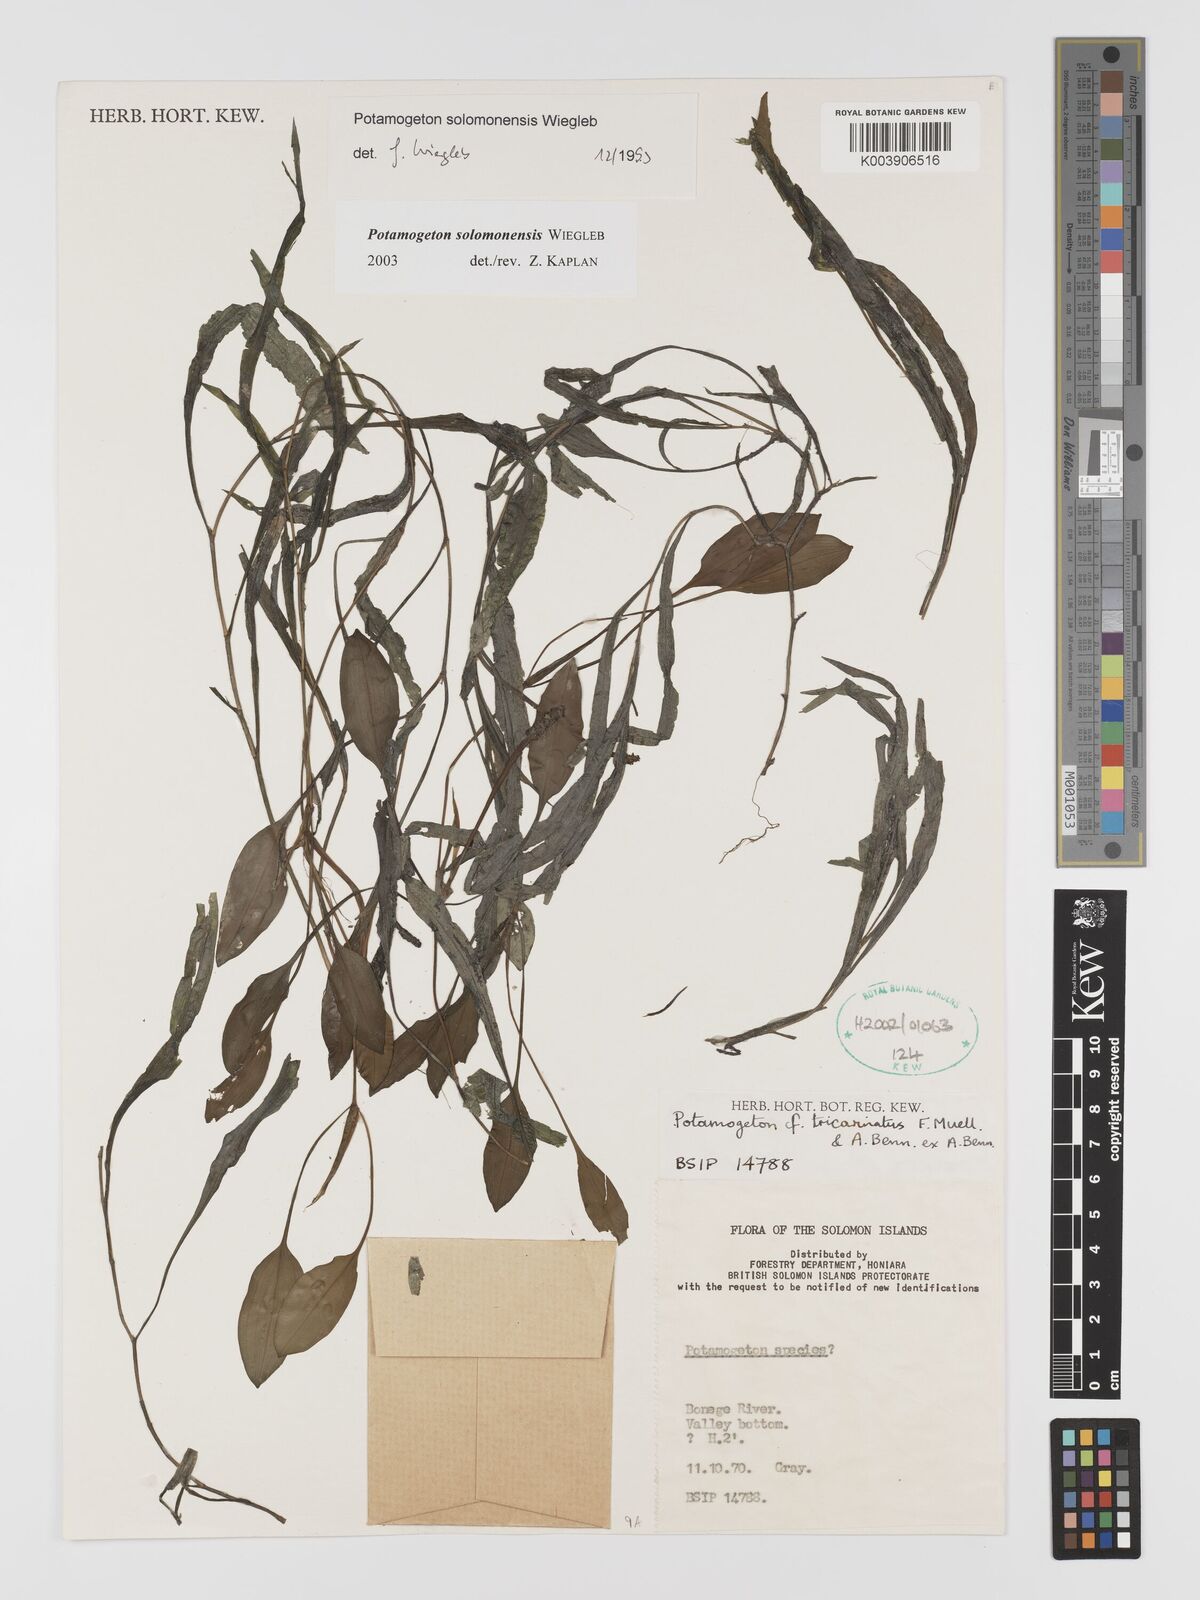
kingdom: Plantae
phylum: Tracheophyta
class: Liliopsida
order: Alismatales
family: Potamogetonaceae
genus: Potamogeton
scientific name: Potamogeton solomonensis
